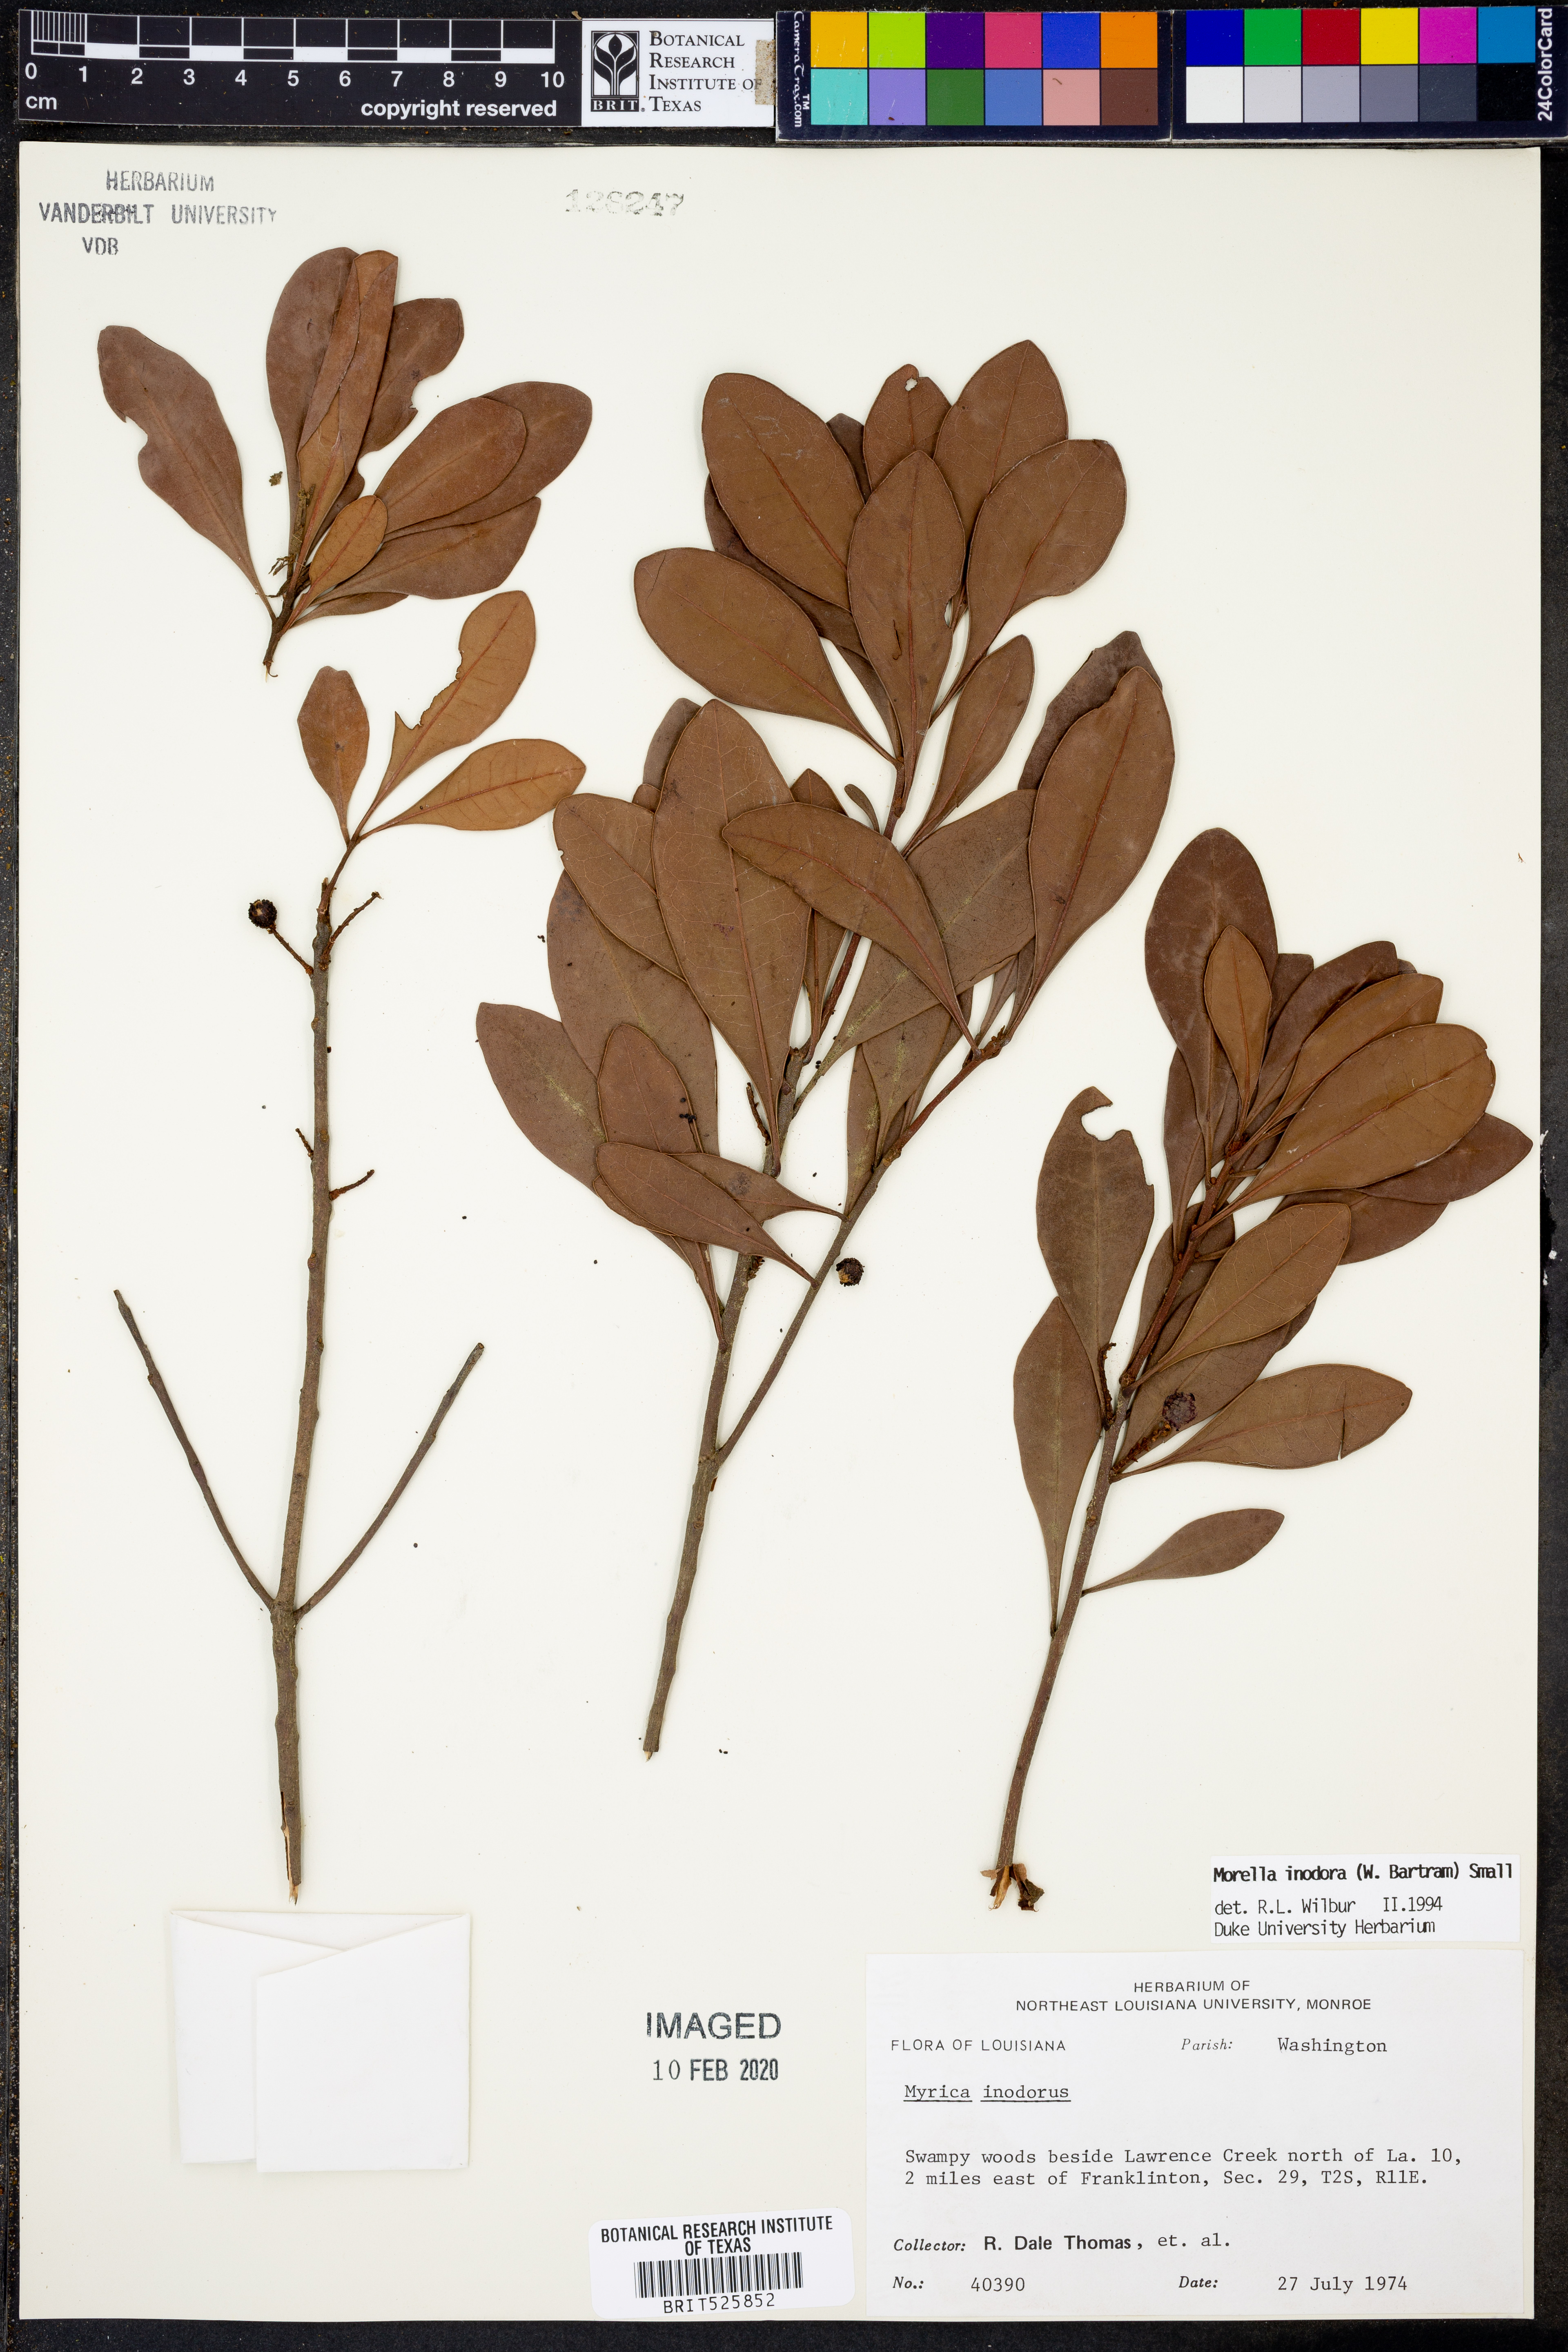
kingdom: Plantae
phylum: Tracheophyta
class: Magnoliopsida
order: Fagales
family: Myricaceae
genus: Morella
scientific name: Morella inodora
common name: Candle-berry
